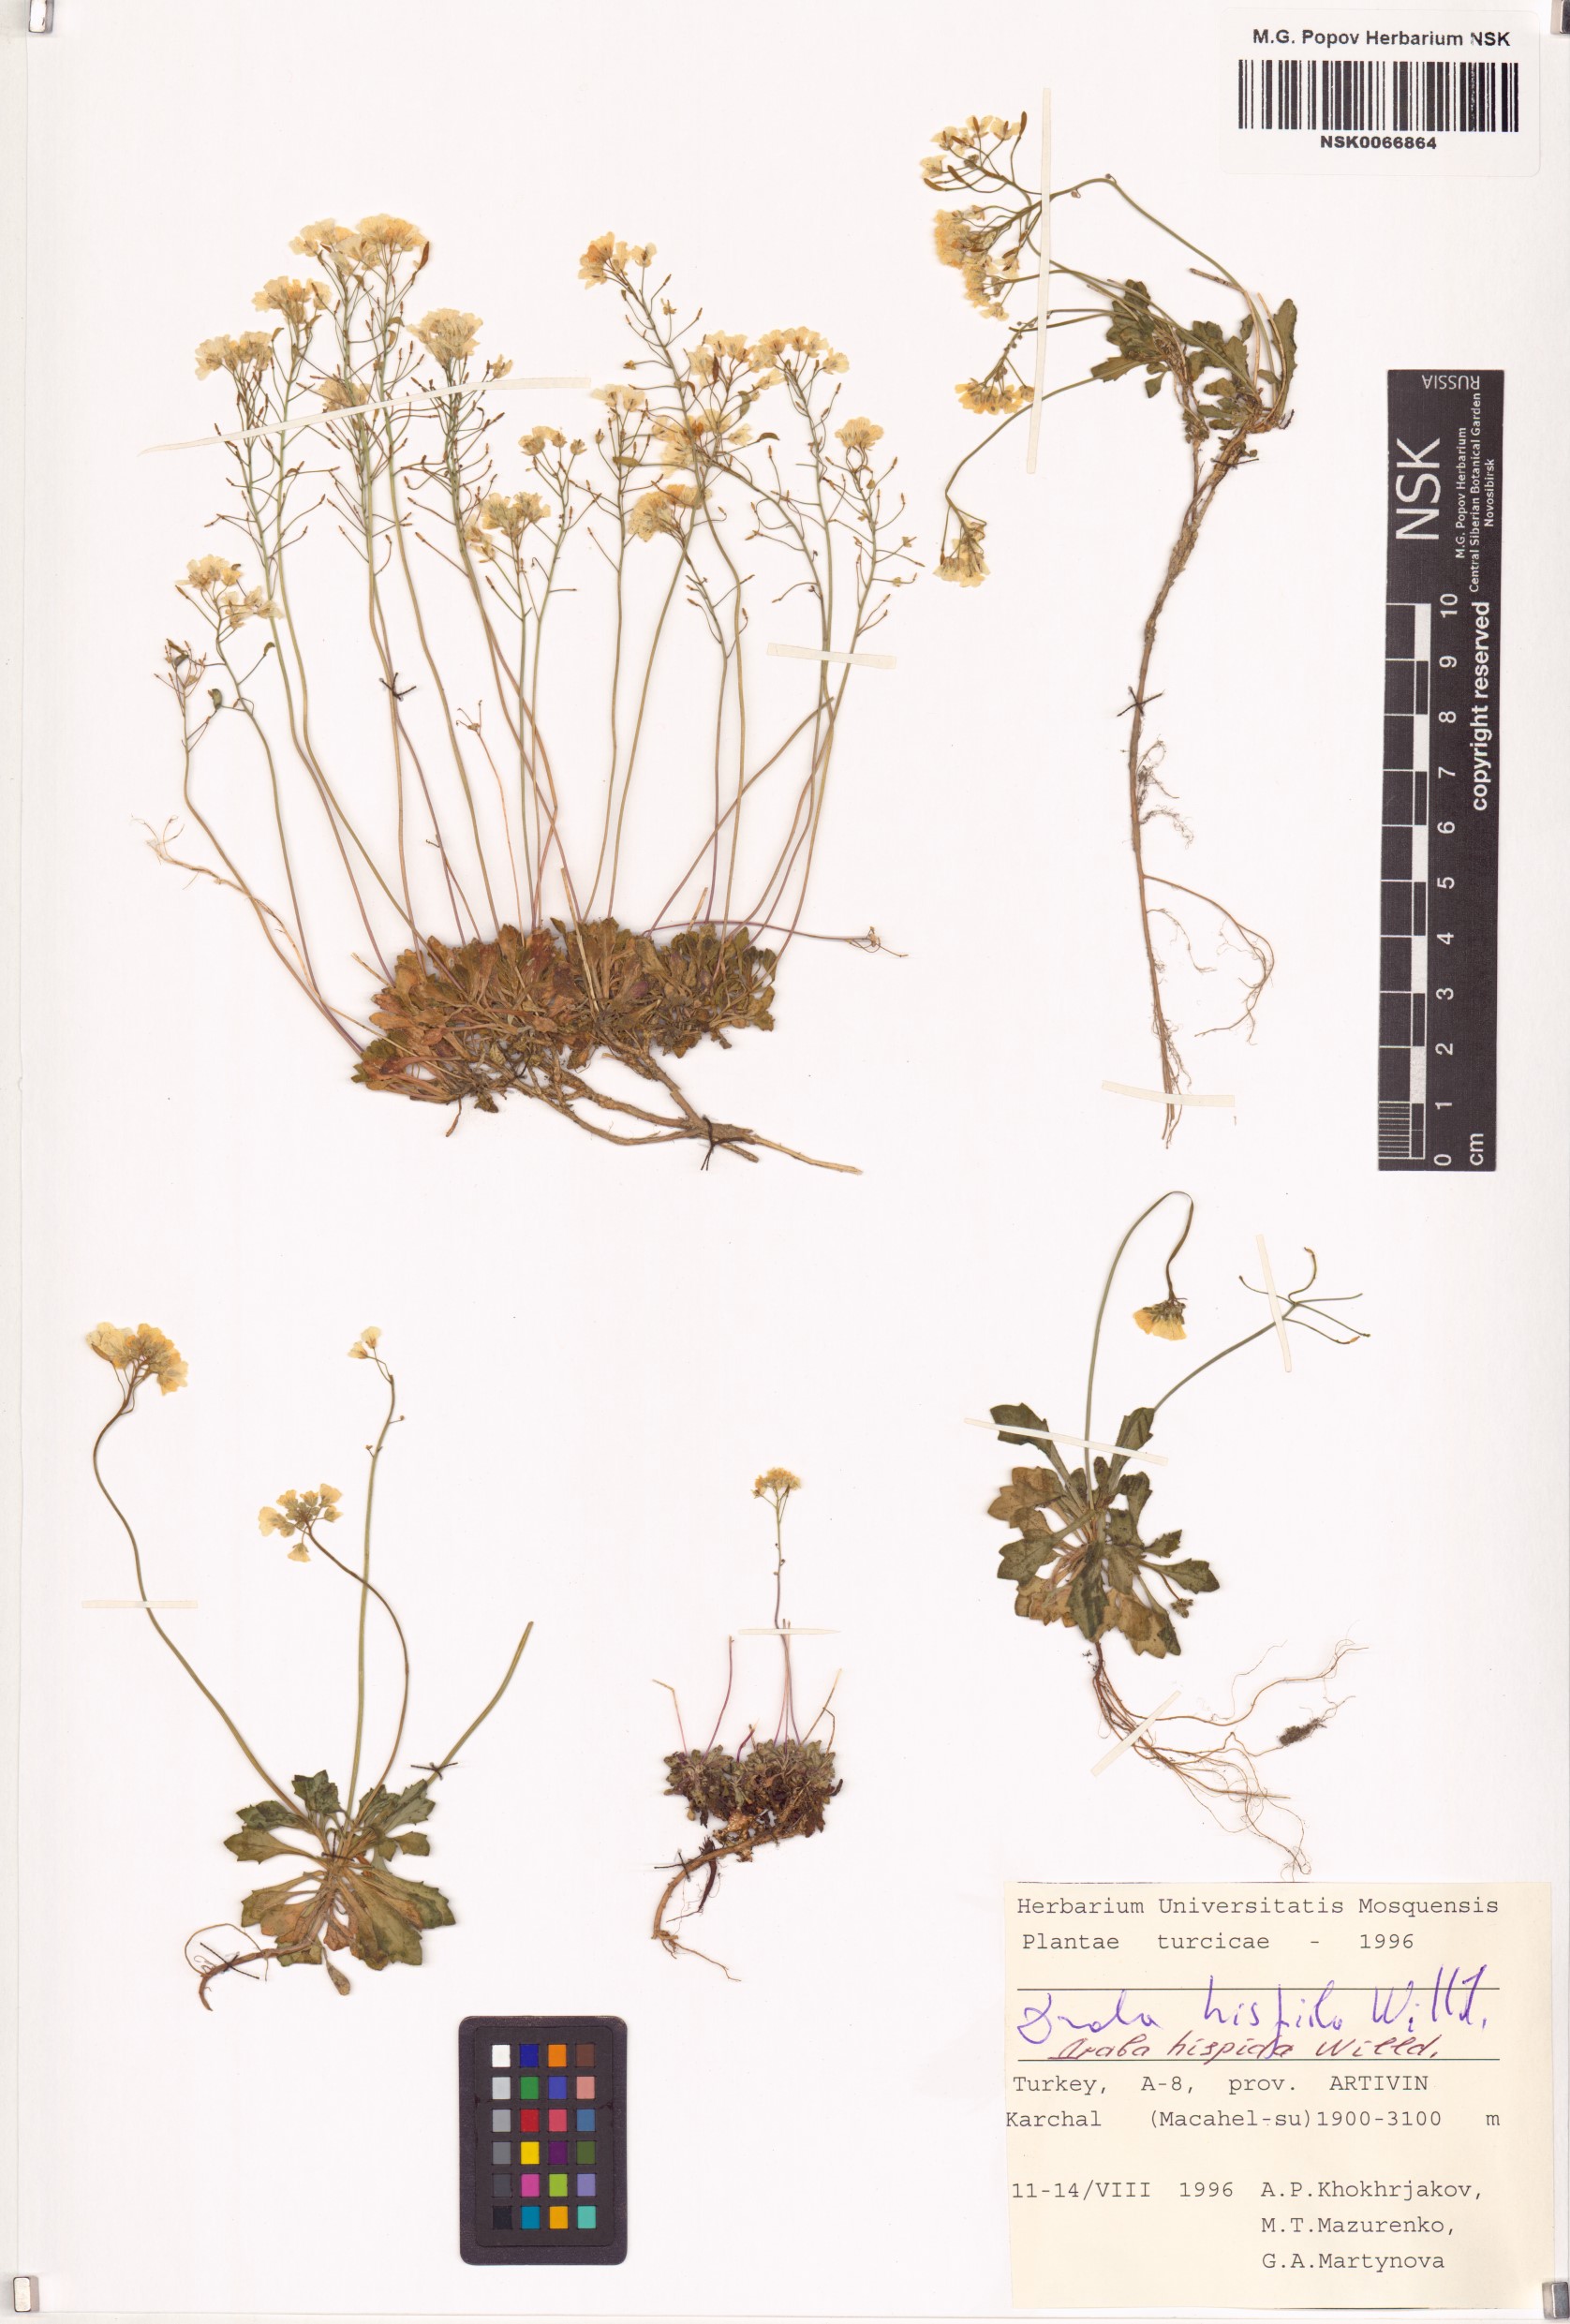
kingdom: Plantae
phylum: Tracheophyta
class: Magnoliopsida
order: Brassicales
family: Brassicaceae
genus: Draba
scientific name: Draba hispida
